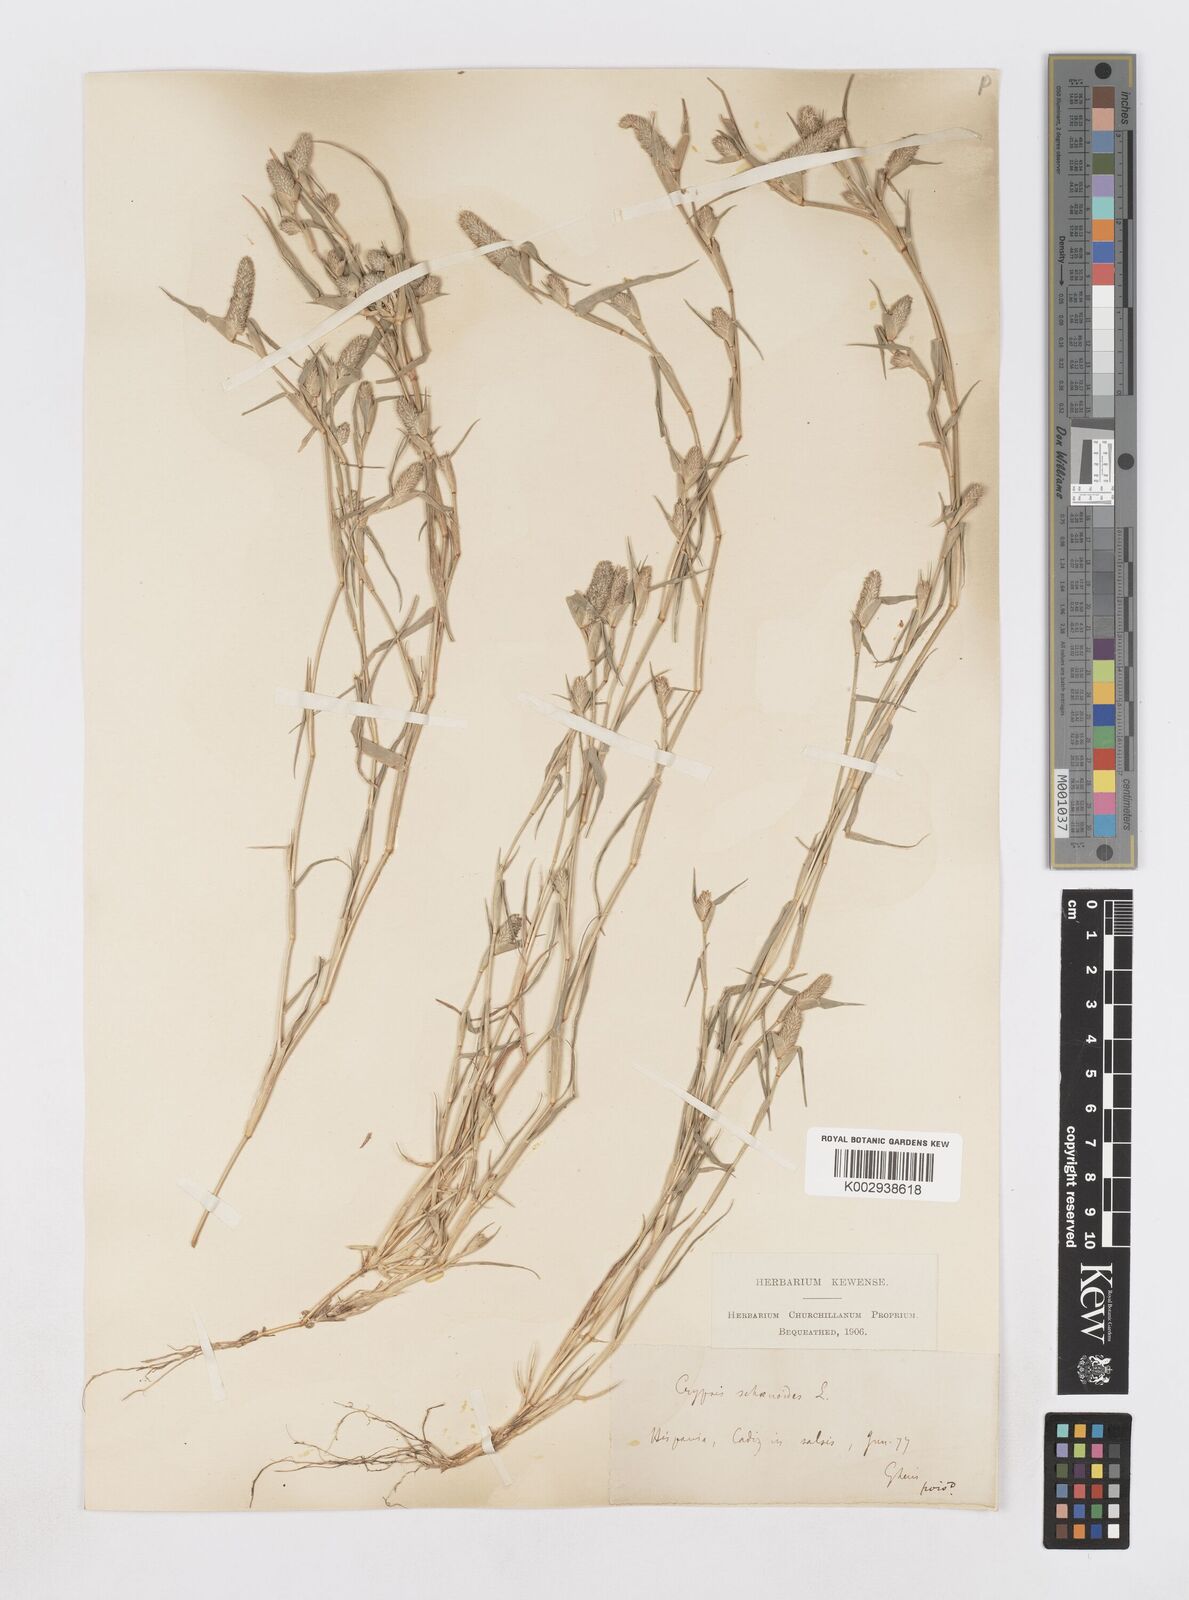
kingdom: Plantae
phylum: Tracheophyta
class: Liliopsida
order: Poales
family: Poaceae
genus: Sporobolus
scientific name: Sporobolus schoenoides
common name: Rush-like timothy
